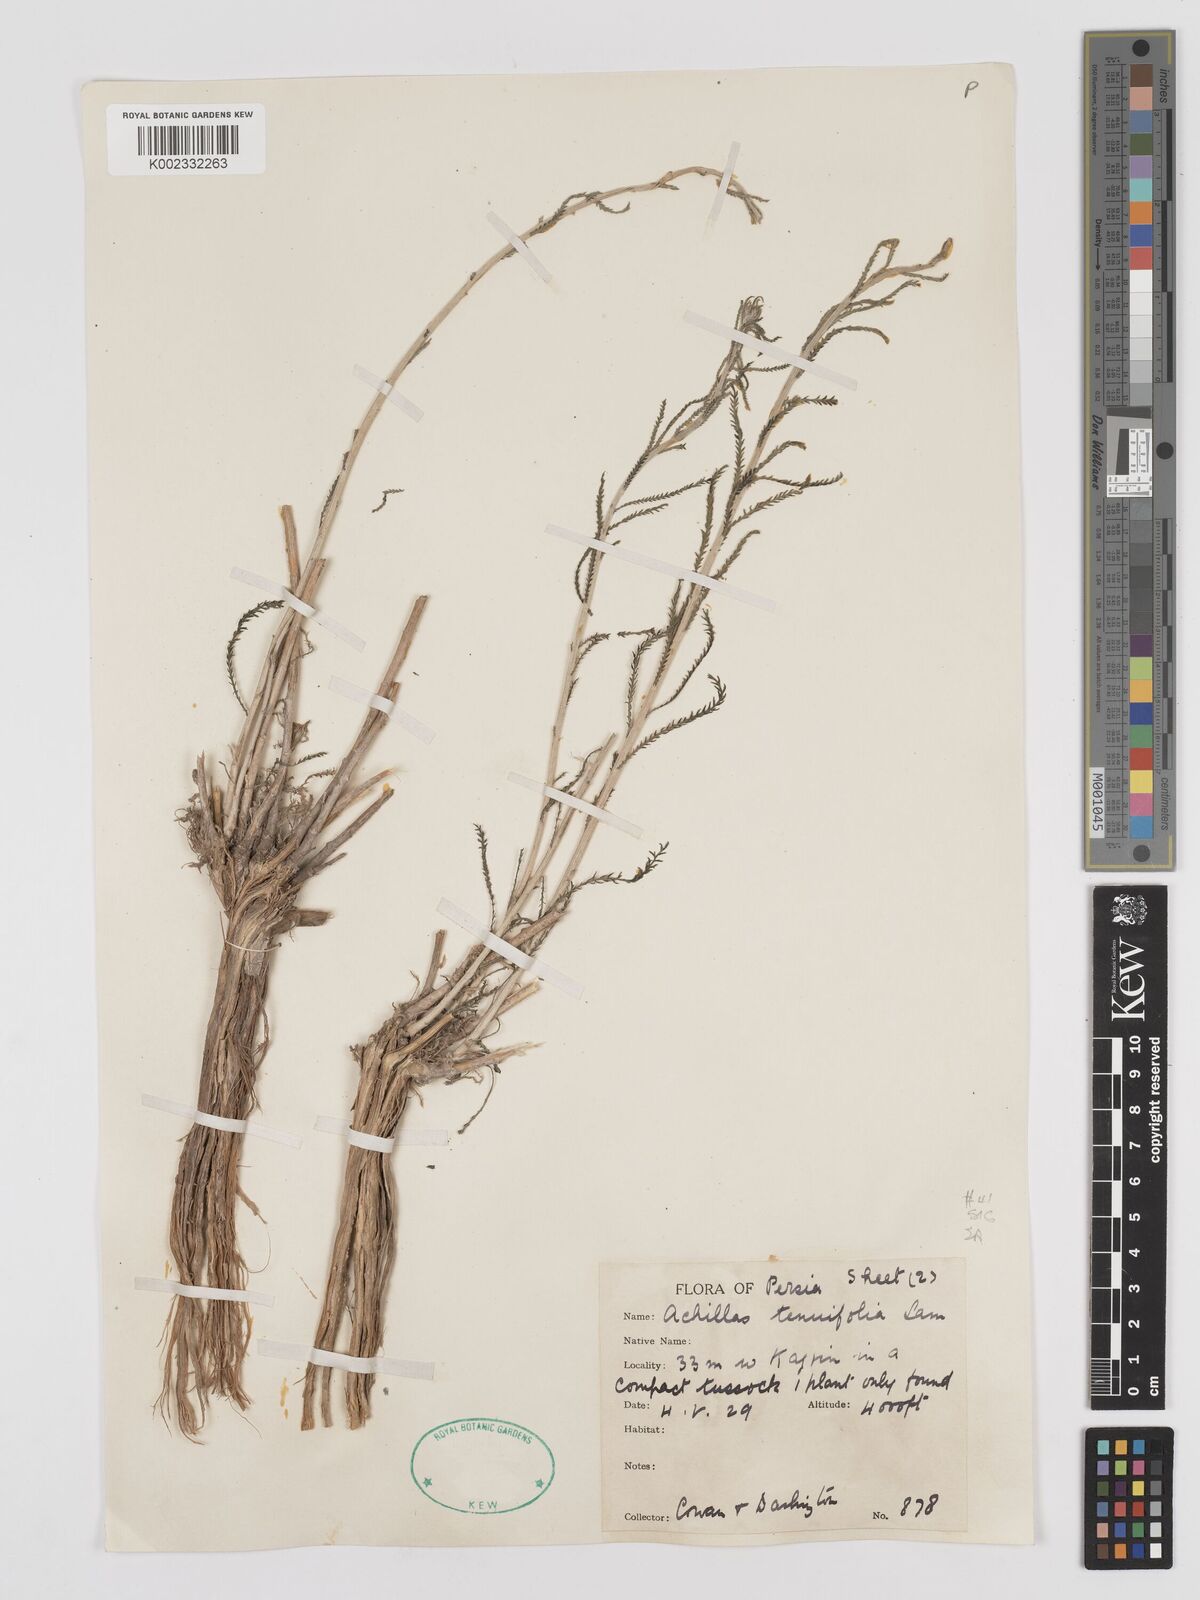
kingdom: Plantae
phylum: Tracheophyta
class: Magnoliopsida
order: Asterales
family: Asteraceae
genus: Achillea
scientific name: Achillea tenuifolia
